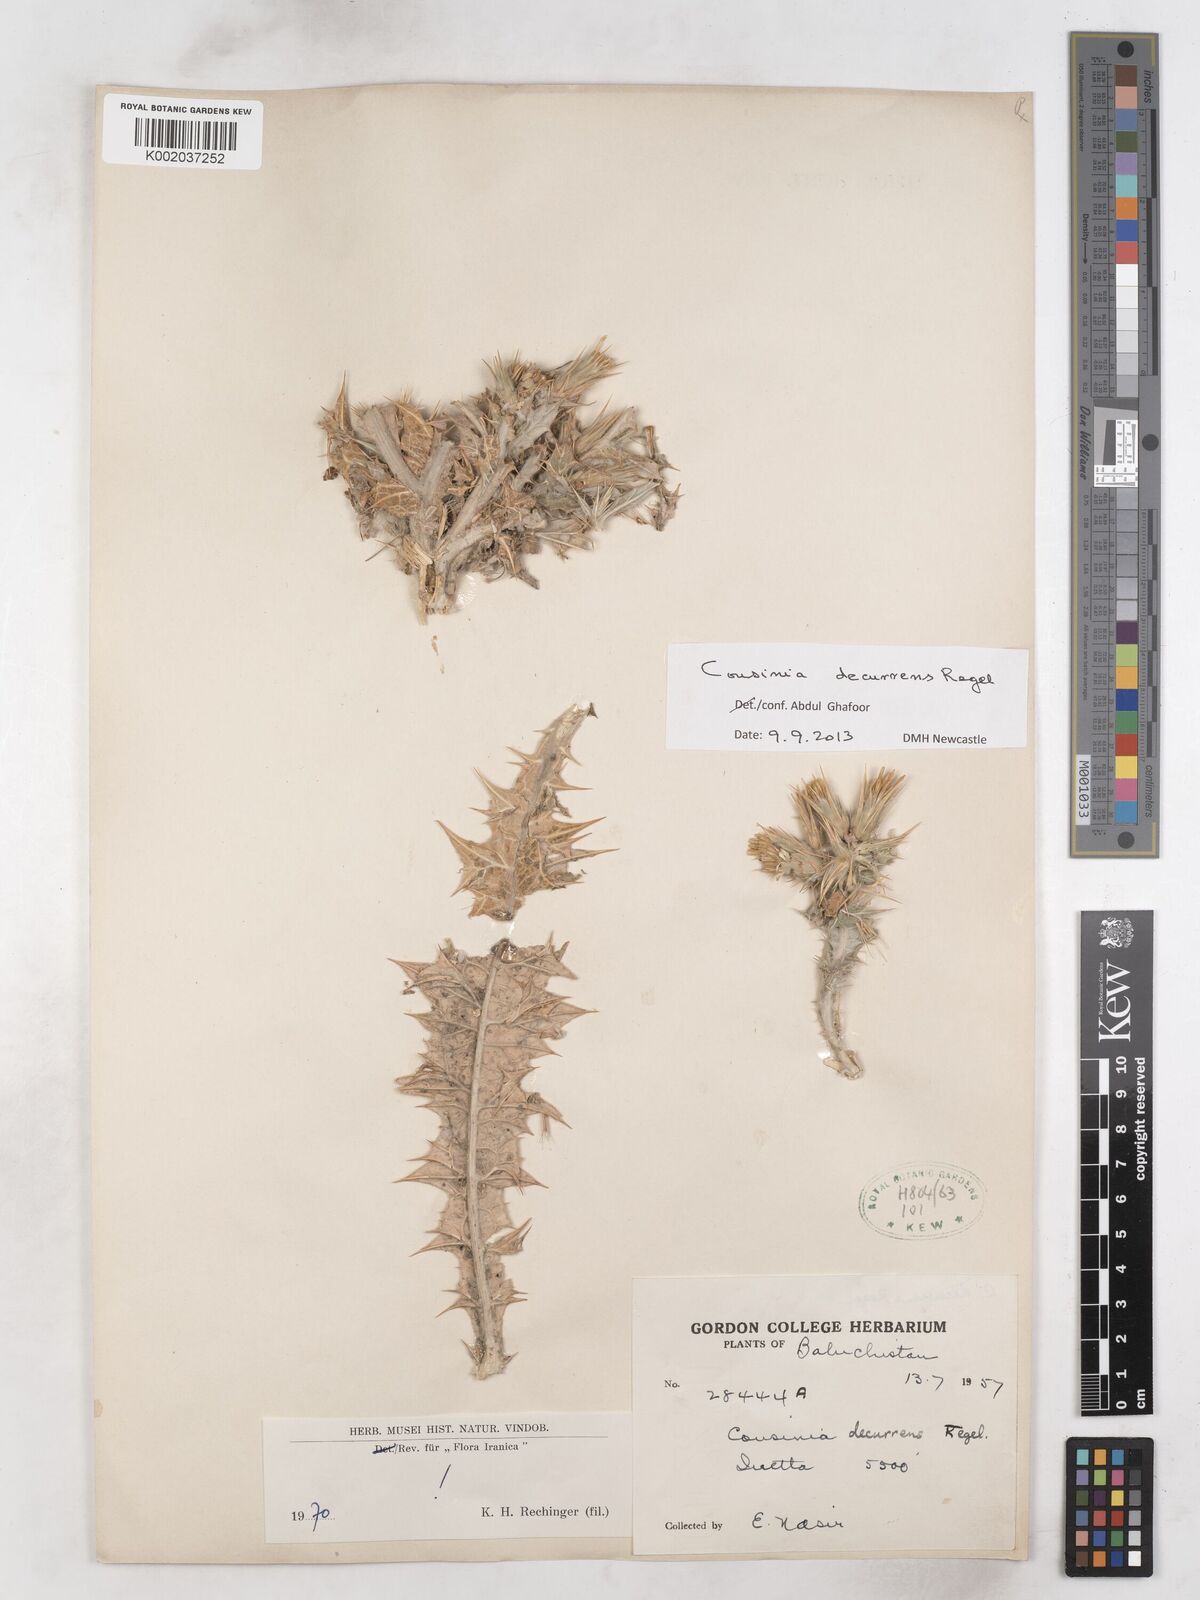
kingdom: Plantae
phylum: Tracheophyta
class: Magnoliopsida
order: Asterales
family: Asteraceae
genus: Cousinia
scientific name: Cousinia decurrens
